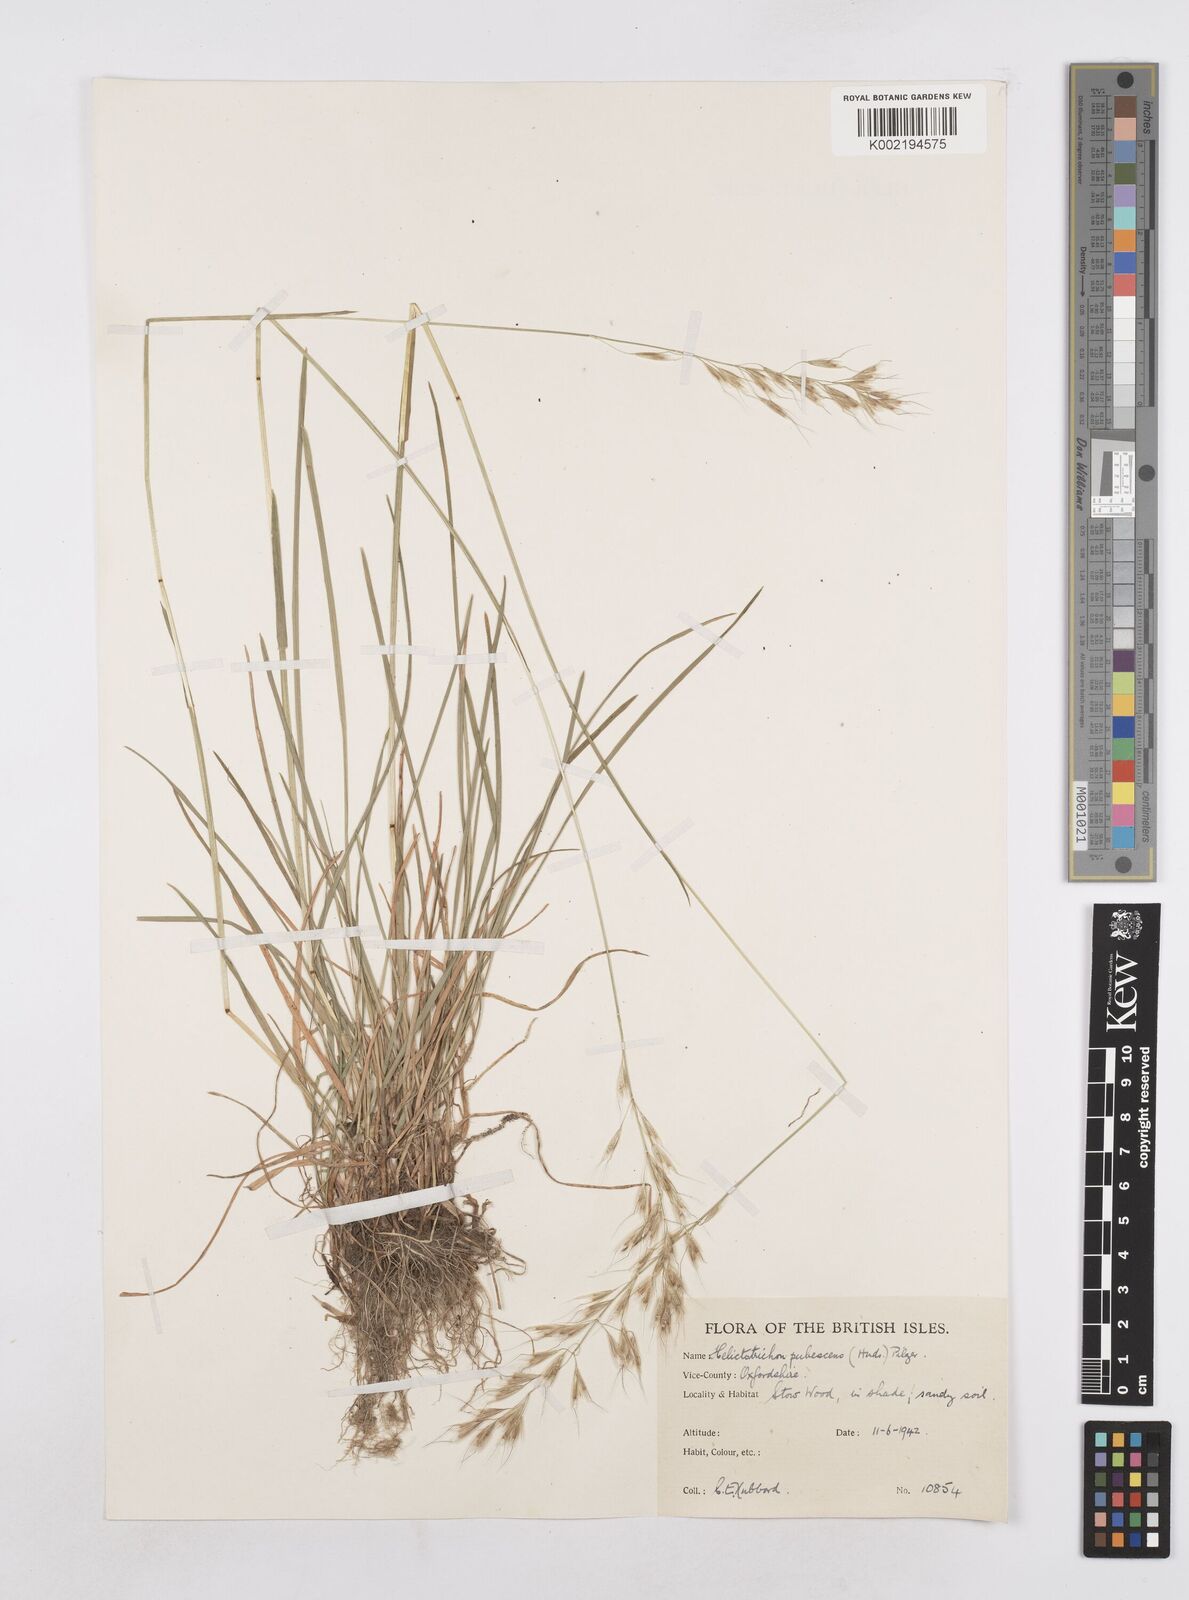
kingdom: Plantae
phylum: Tracheophyta
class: Liliopsida
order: Poales
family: Poaceae
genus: Avenula
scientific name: Avenula pubescens
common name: Downy alpine oatgrass
